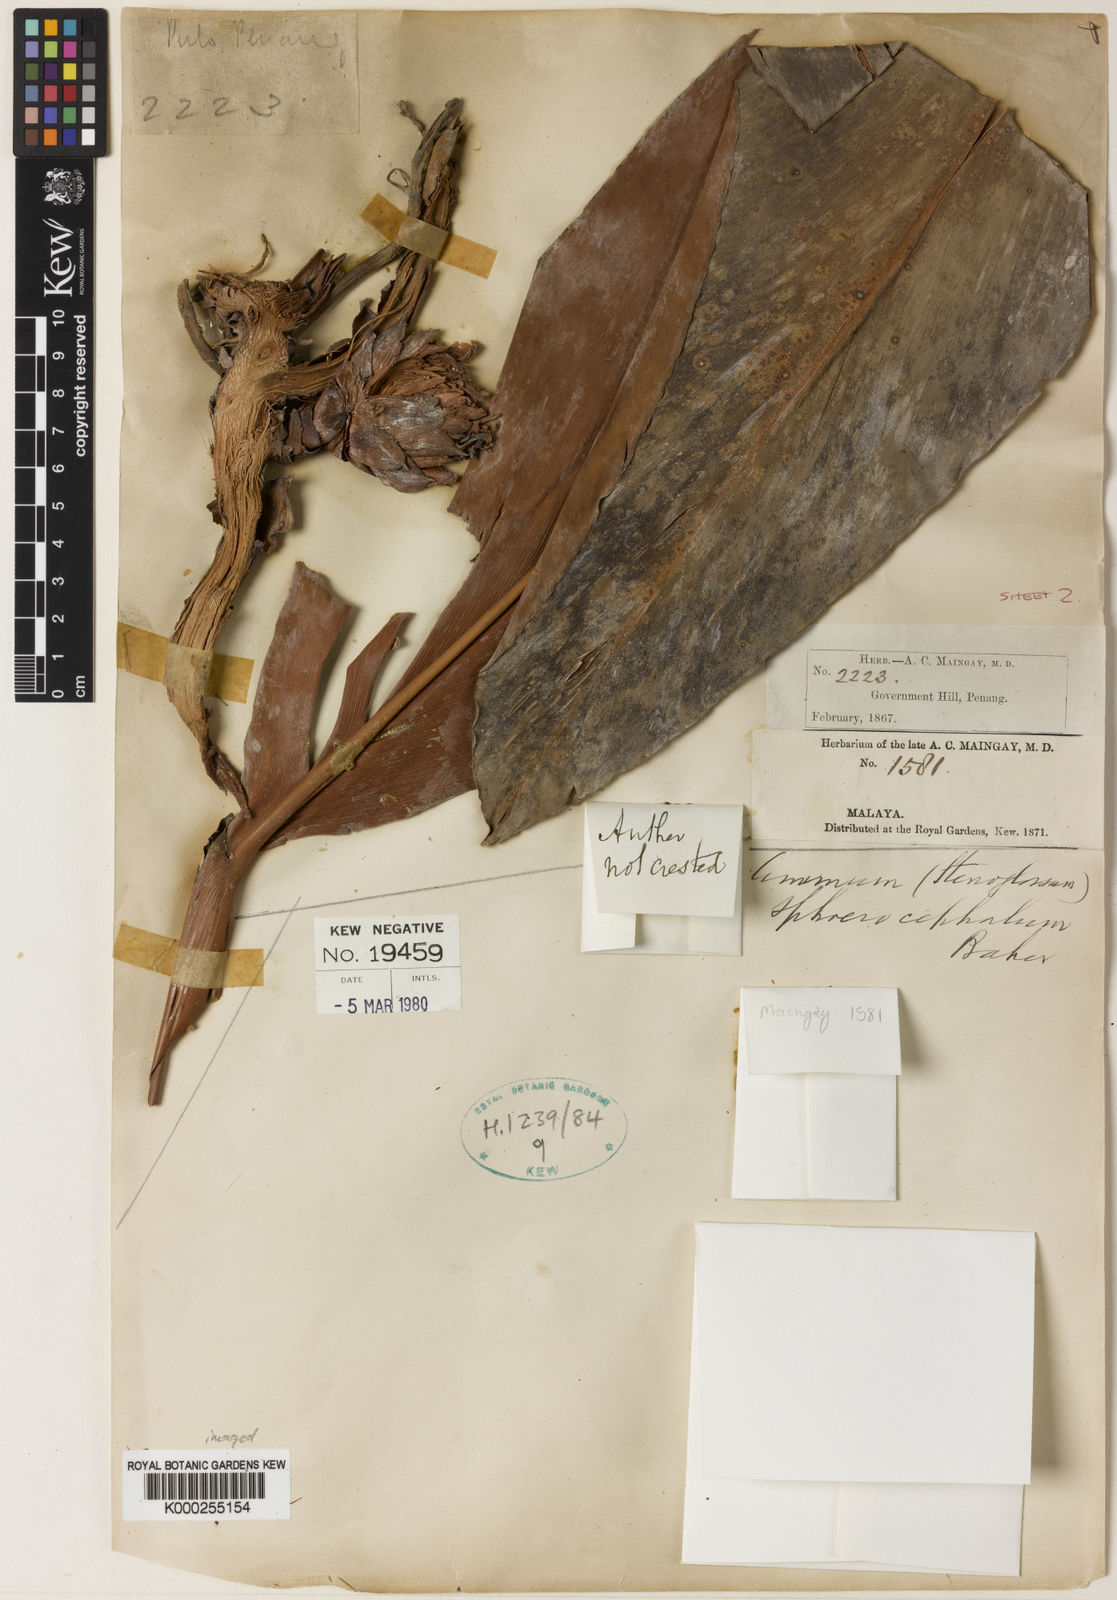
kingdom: Plantae
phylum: Tracheophyta
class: Liliopsida
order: Zingiberales
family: Zingiberaceae
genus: Etlingera
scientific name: Etlingera metriocheilos
